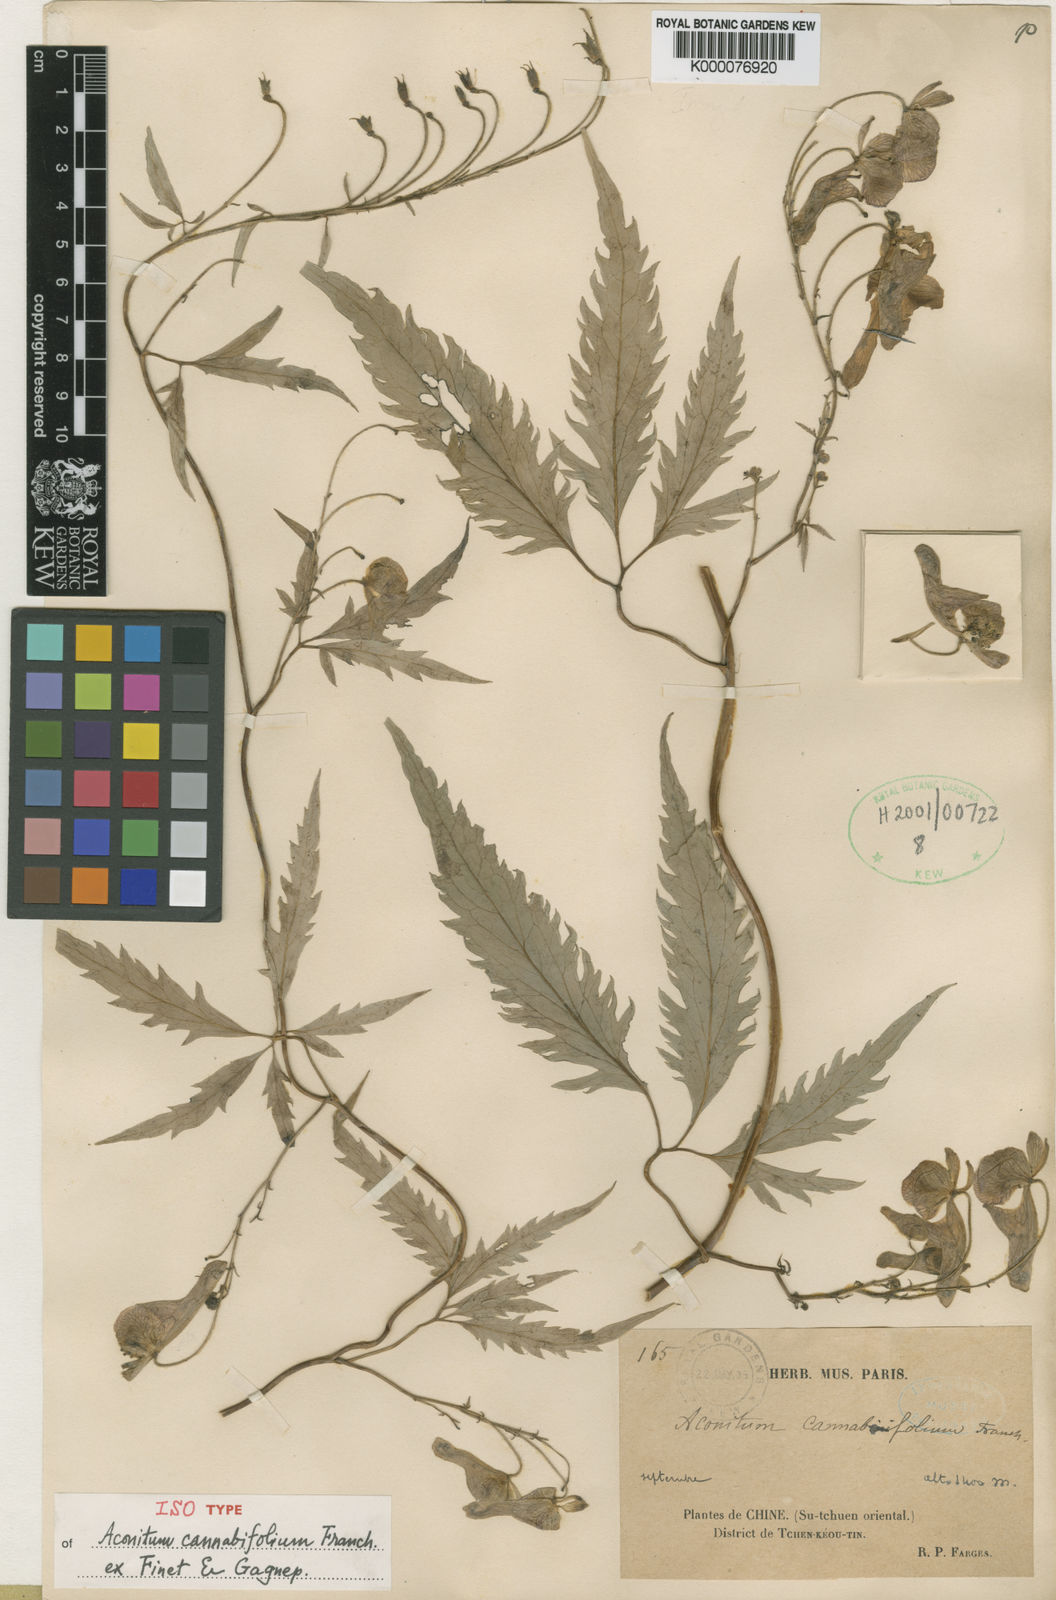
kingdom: Plantae
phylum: Tracheophyta
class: Magnoliopsida
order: Ranunculales
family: Ranunculaceae
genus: Aconitum
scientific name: Aconitum cannabifolium
